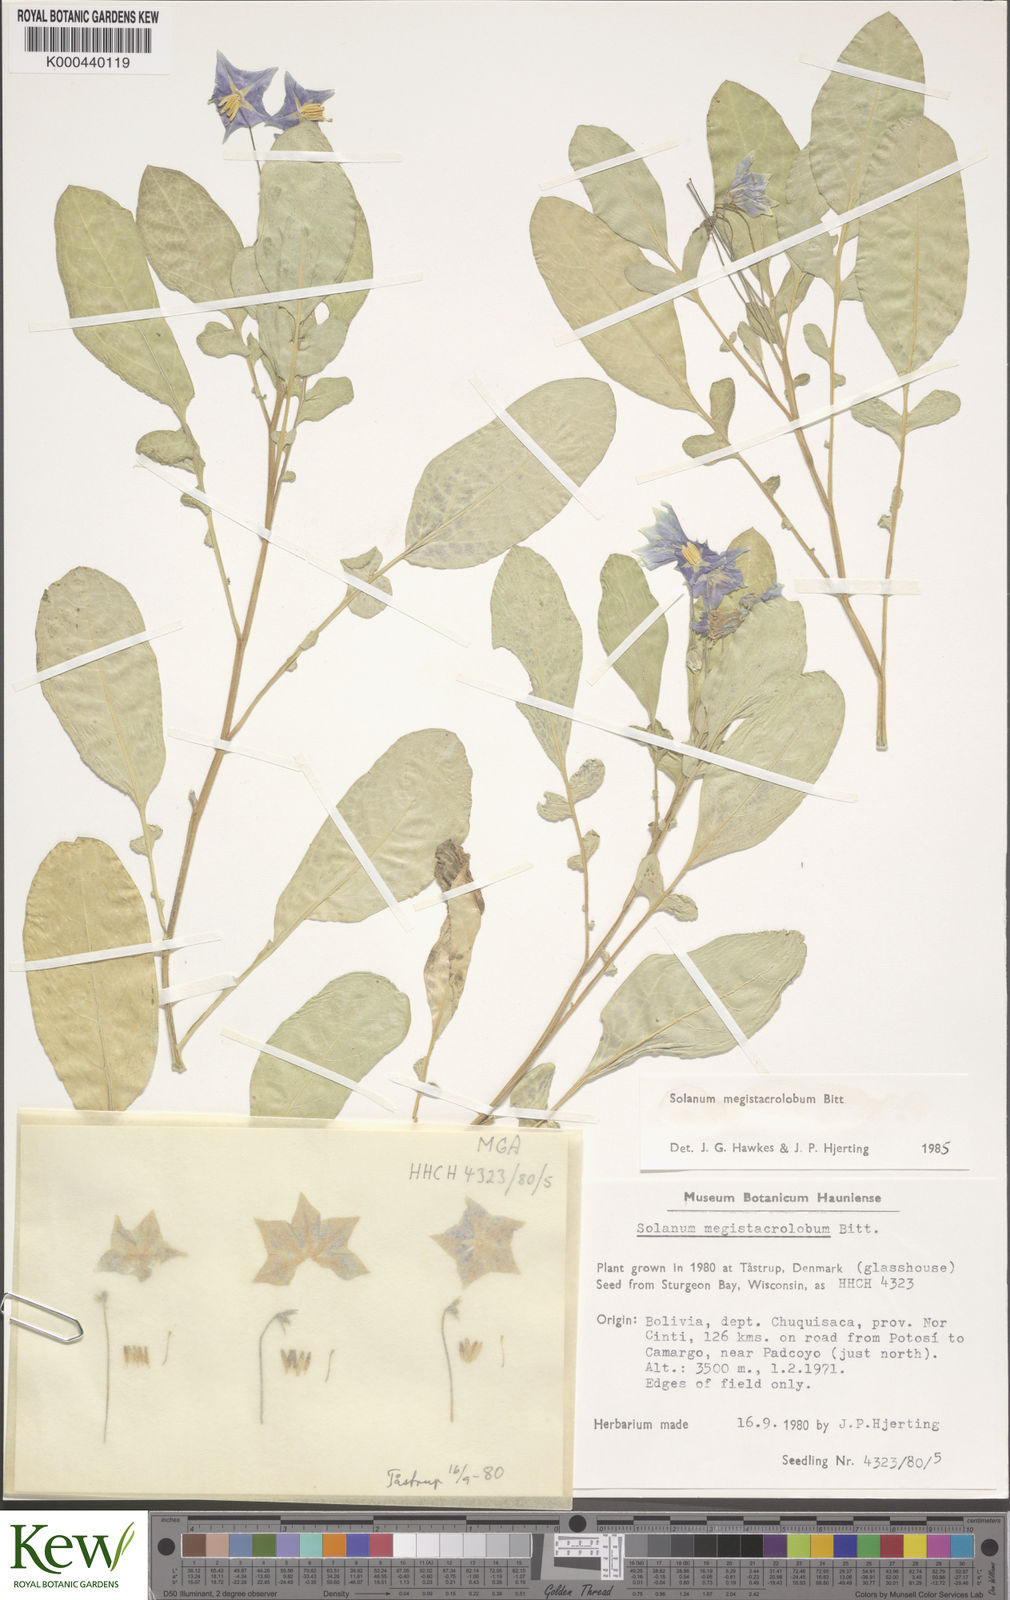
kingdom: Plantae
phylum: Tracheophyta
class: Magnoliopsida
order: Solanales
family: Solanaceae
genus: Solanum
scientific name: Solanum boliviense
